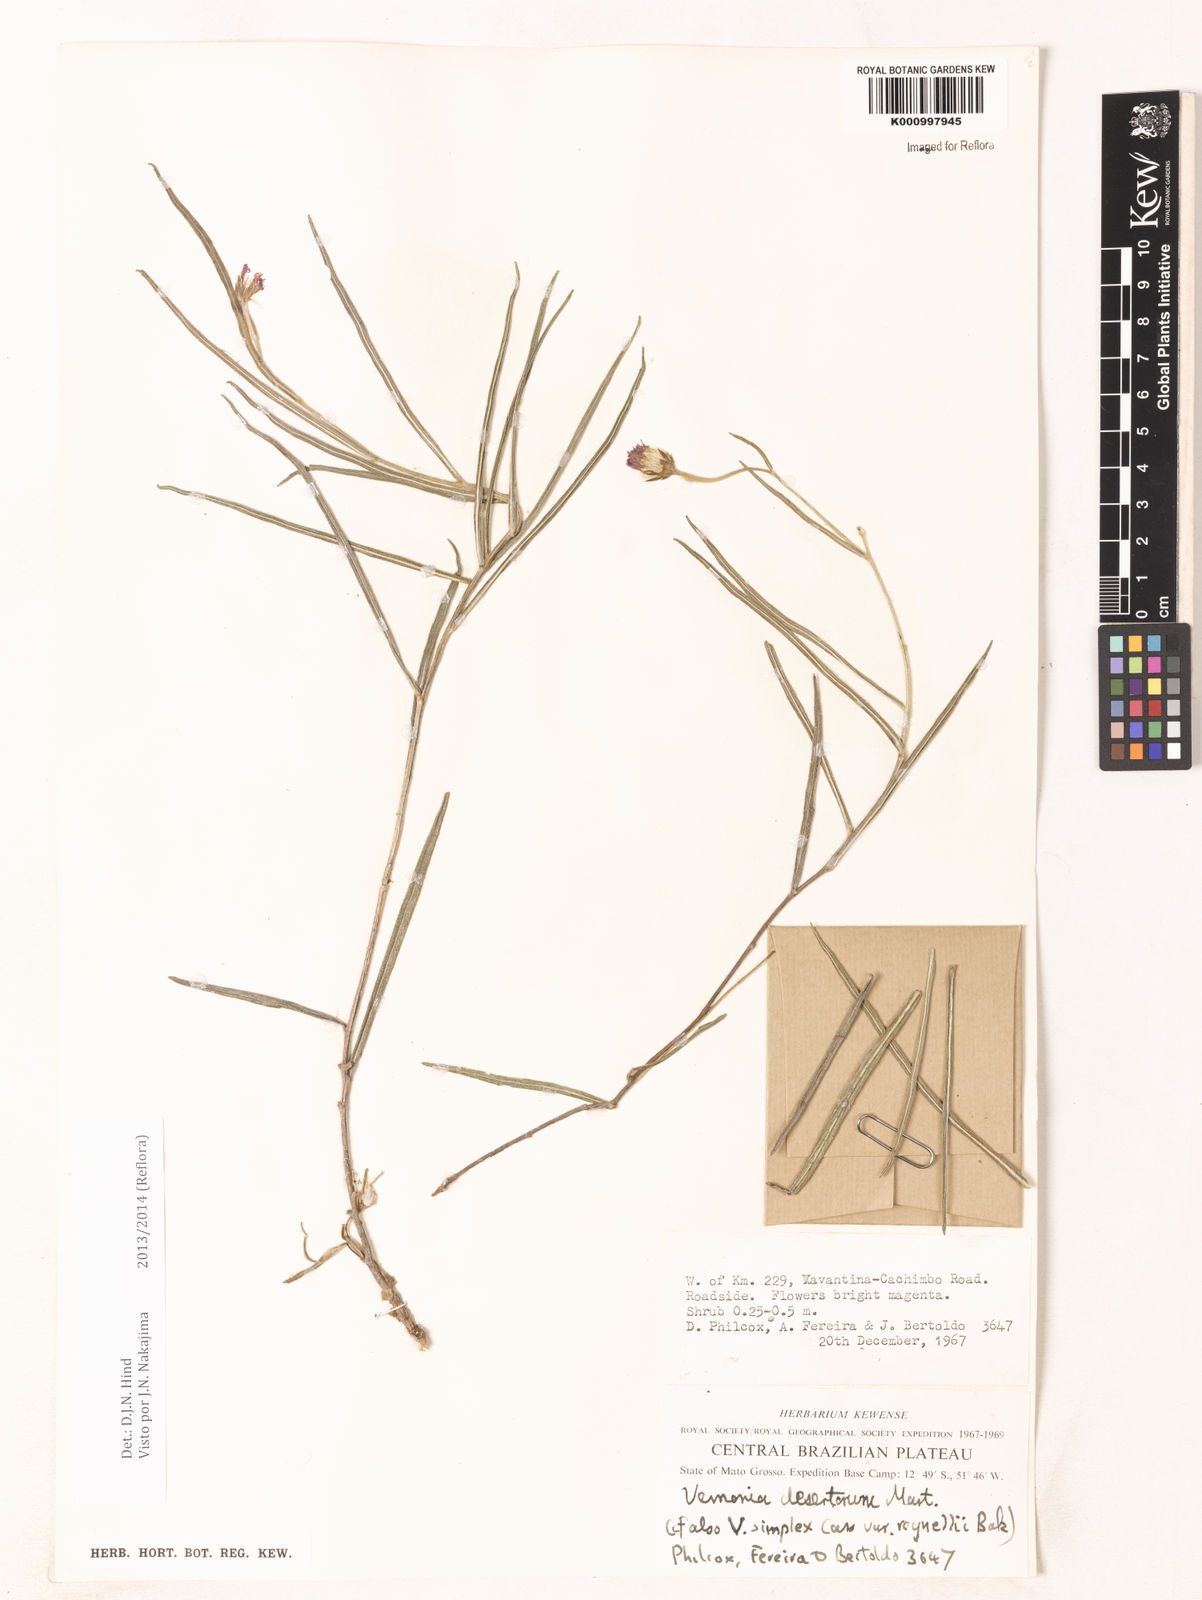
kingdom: Plantae
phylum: Tracheophyta
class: Magnoliopsida
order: Asterales
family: Asteraceae
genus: Chrysolaena
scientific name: Chrysolaena desertorum
